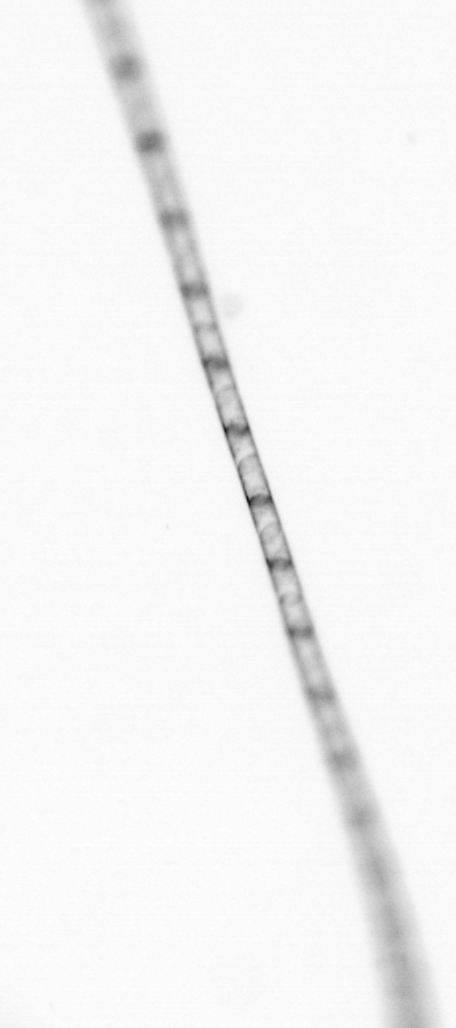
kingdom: Chromista
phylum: Ochrophyta
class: Bacillariophyceae
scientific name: Bacillariophyceae
